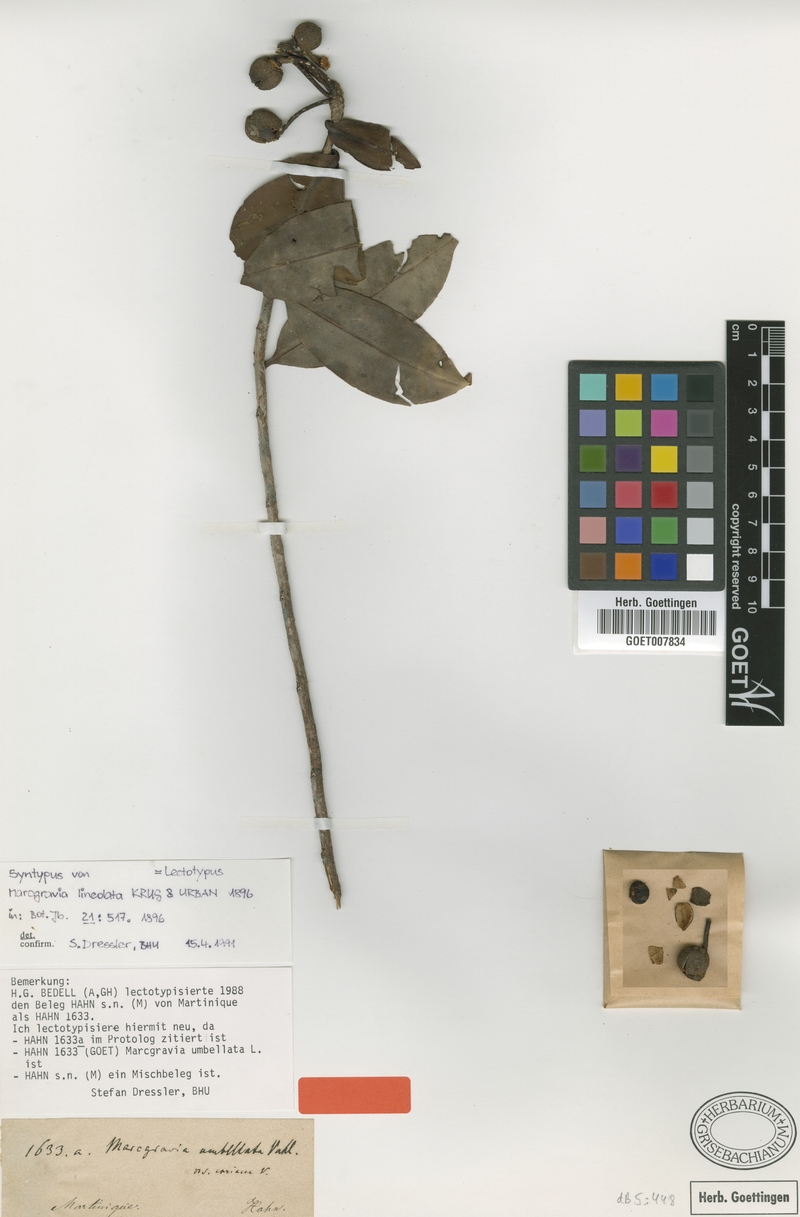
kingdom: Plantae
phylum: Tracheophyta
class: Magnoliopsida
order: Ericales
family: Marcgraviaceae
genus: Marcgravia
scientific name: Marcgravia lineolata
